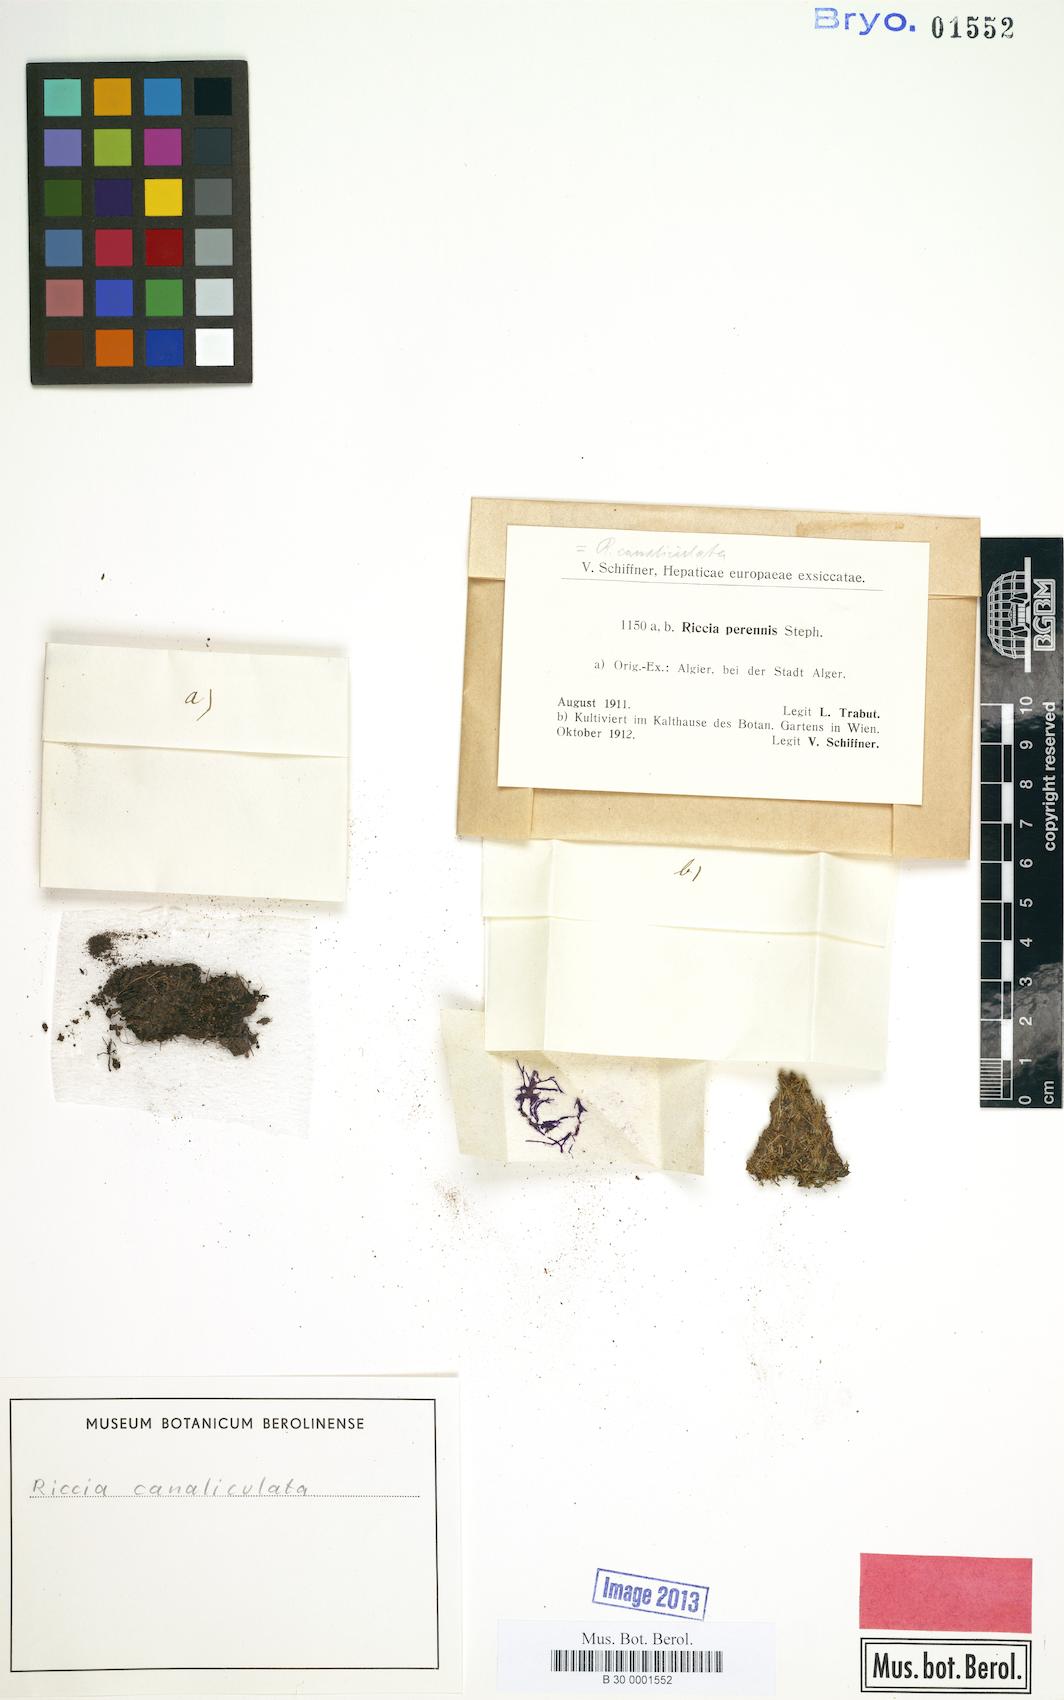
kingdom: Plantae
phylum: Marchantiophyta
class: Marchantiopsida
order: Marchantiales
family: Ricciaceae
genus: Riccia
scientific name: Riccia canaliculata
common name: Channelled crystalwort
